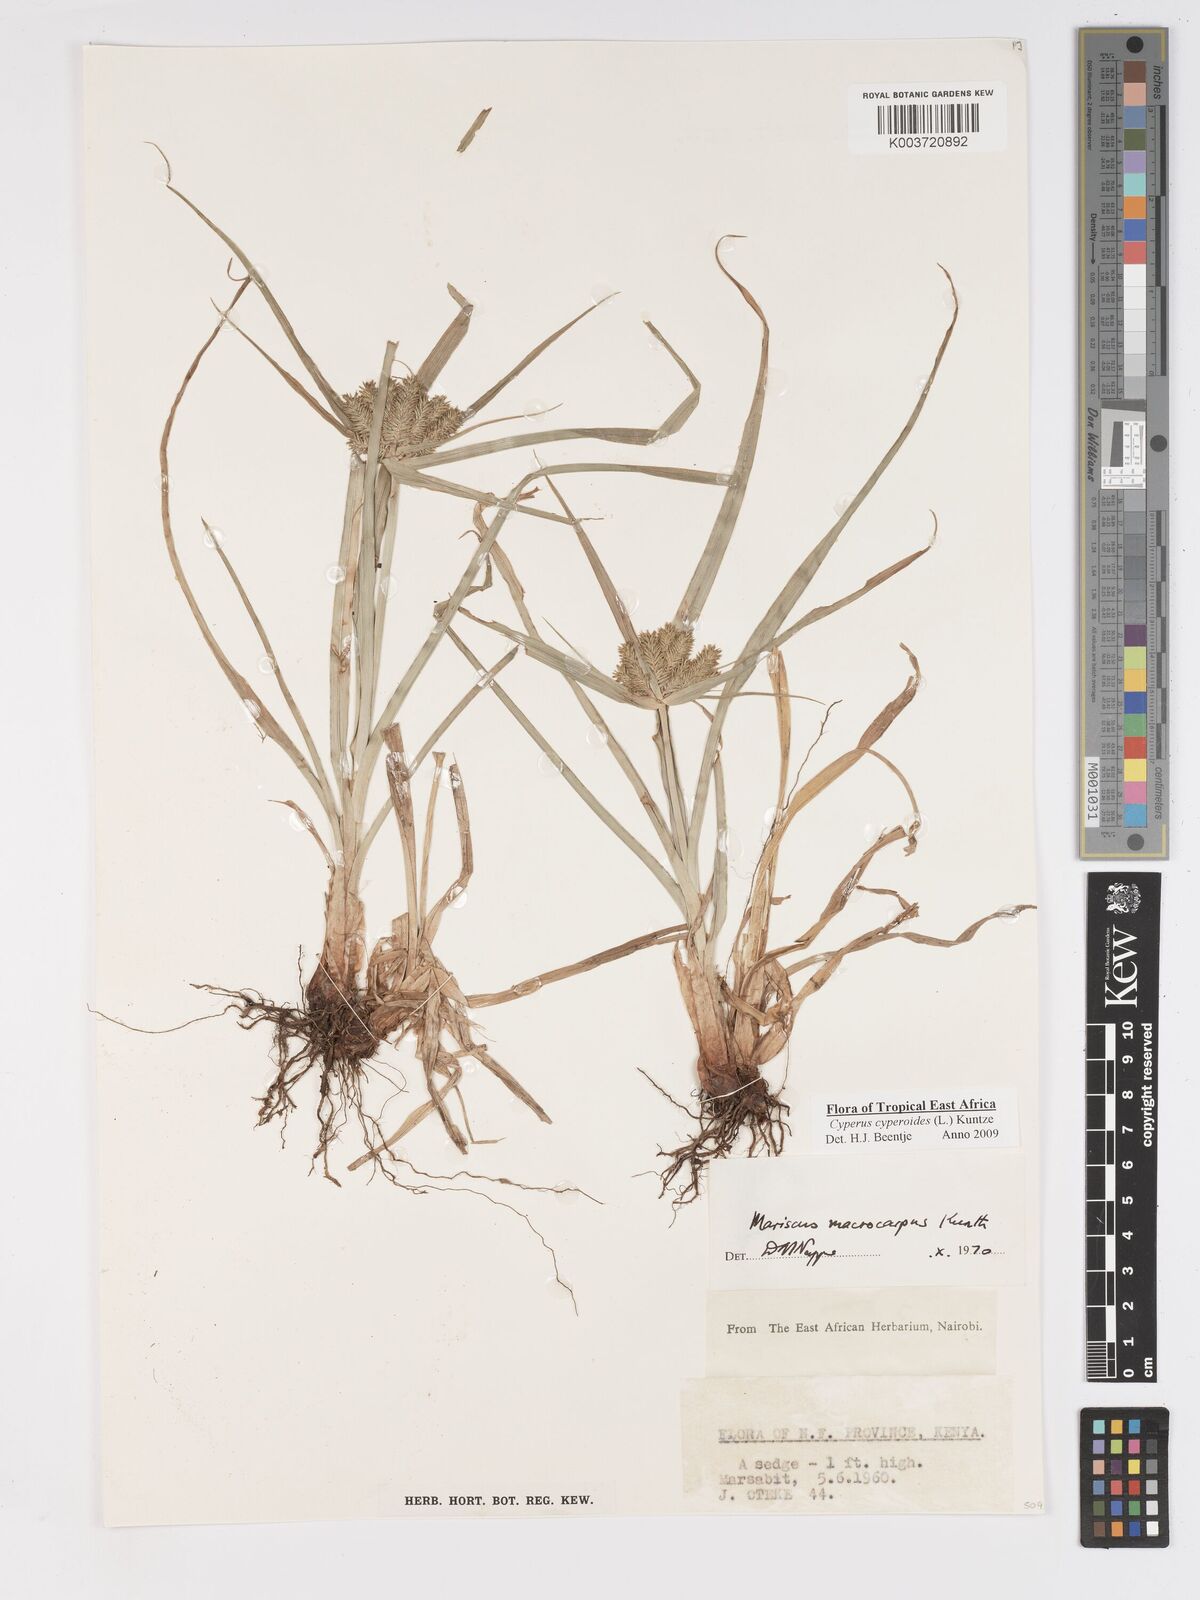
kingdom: Plantae
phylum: Tracheophyta
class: Liliopsida
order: Poales
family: Cyperaceae
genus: Cyperus
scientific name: Cyperus macrocarpus
